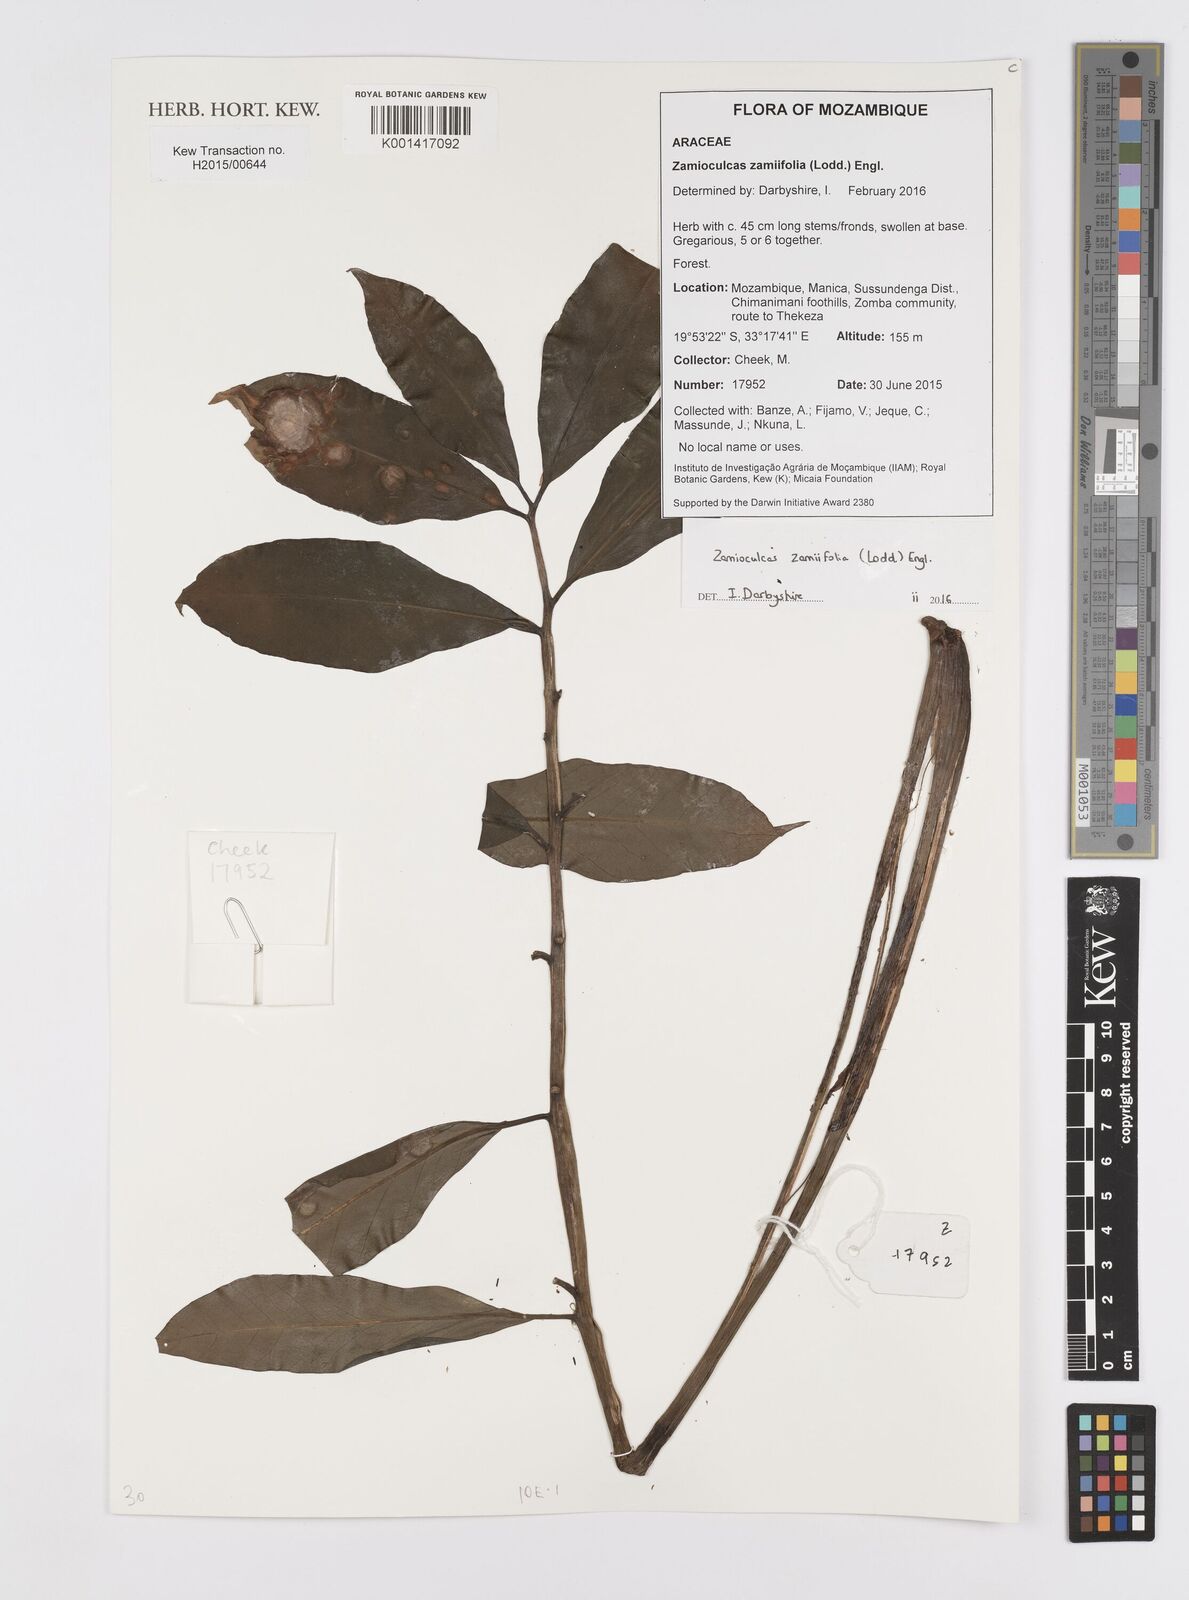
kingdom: Plantae
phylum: Tracheophyta
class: Liliopsida
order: Alismatales
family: Araceae
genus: Zamioculcas
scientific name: Zamioculcas zamiifolia
